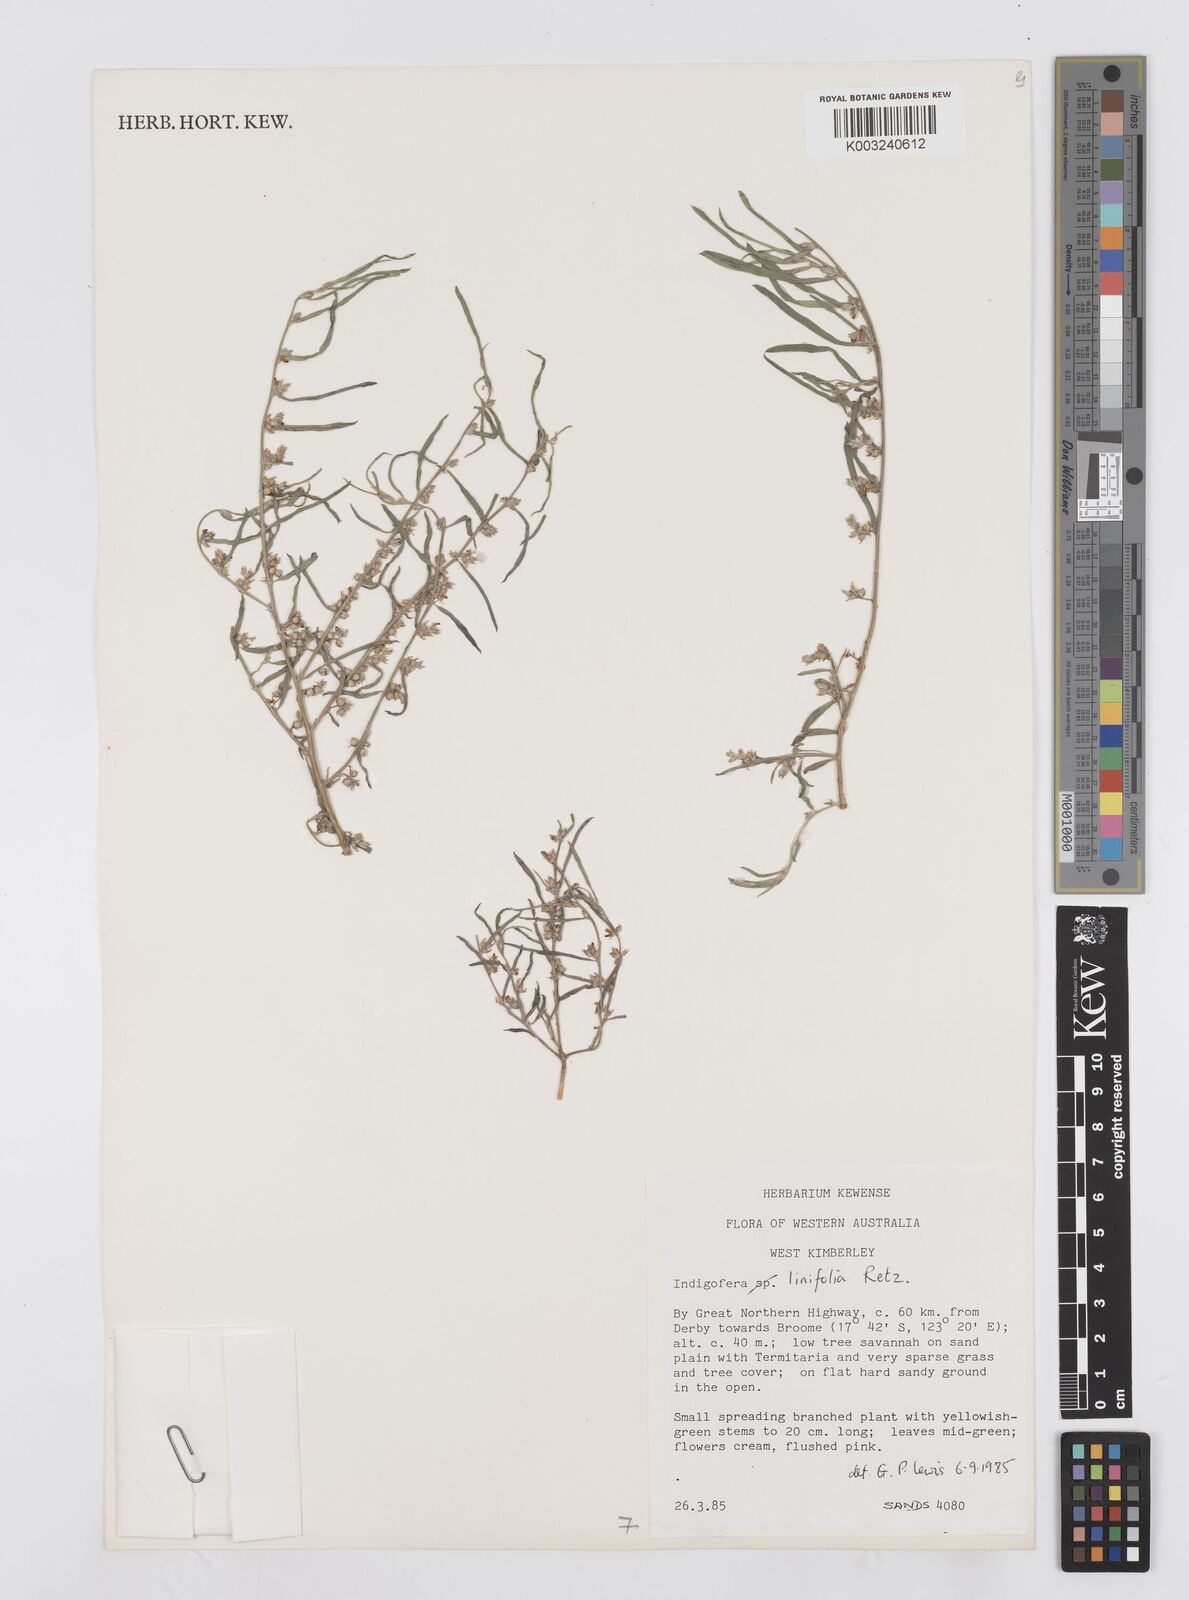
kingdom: Plantae
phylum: Tracheophyta
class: Magnoliopsida
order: Fabales
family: Fabaceae
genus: Indigofera
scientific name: Indigofera linifolia
